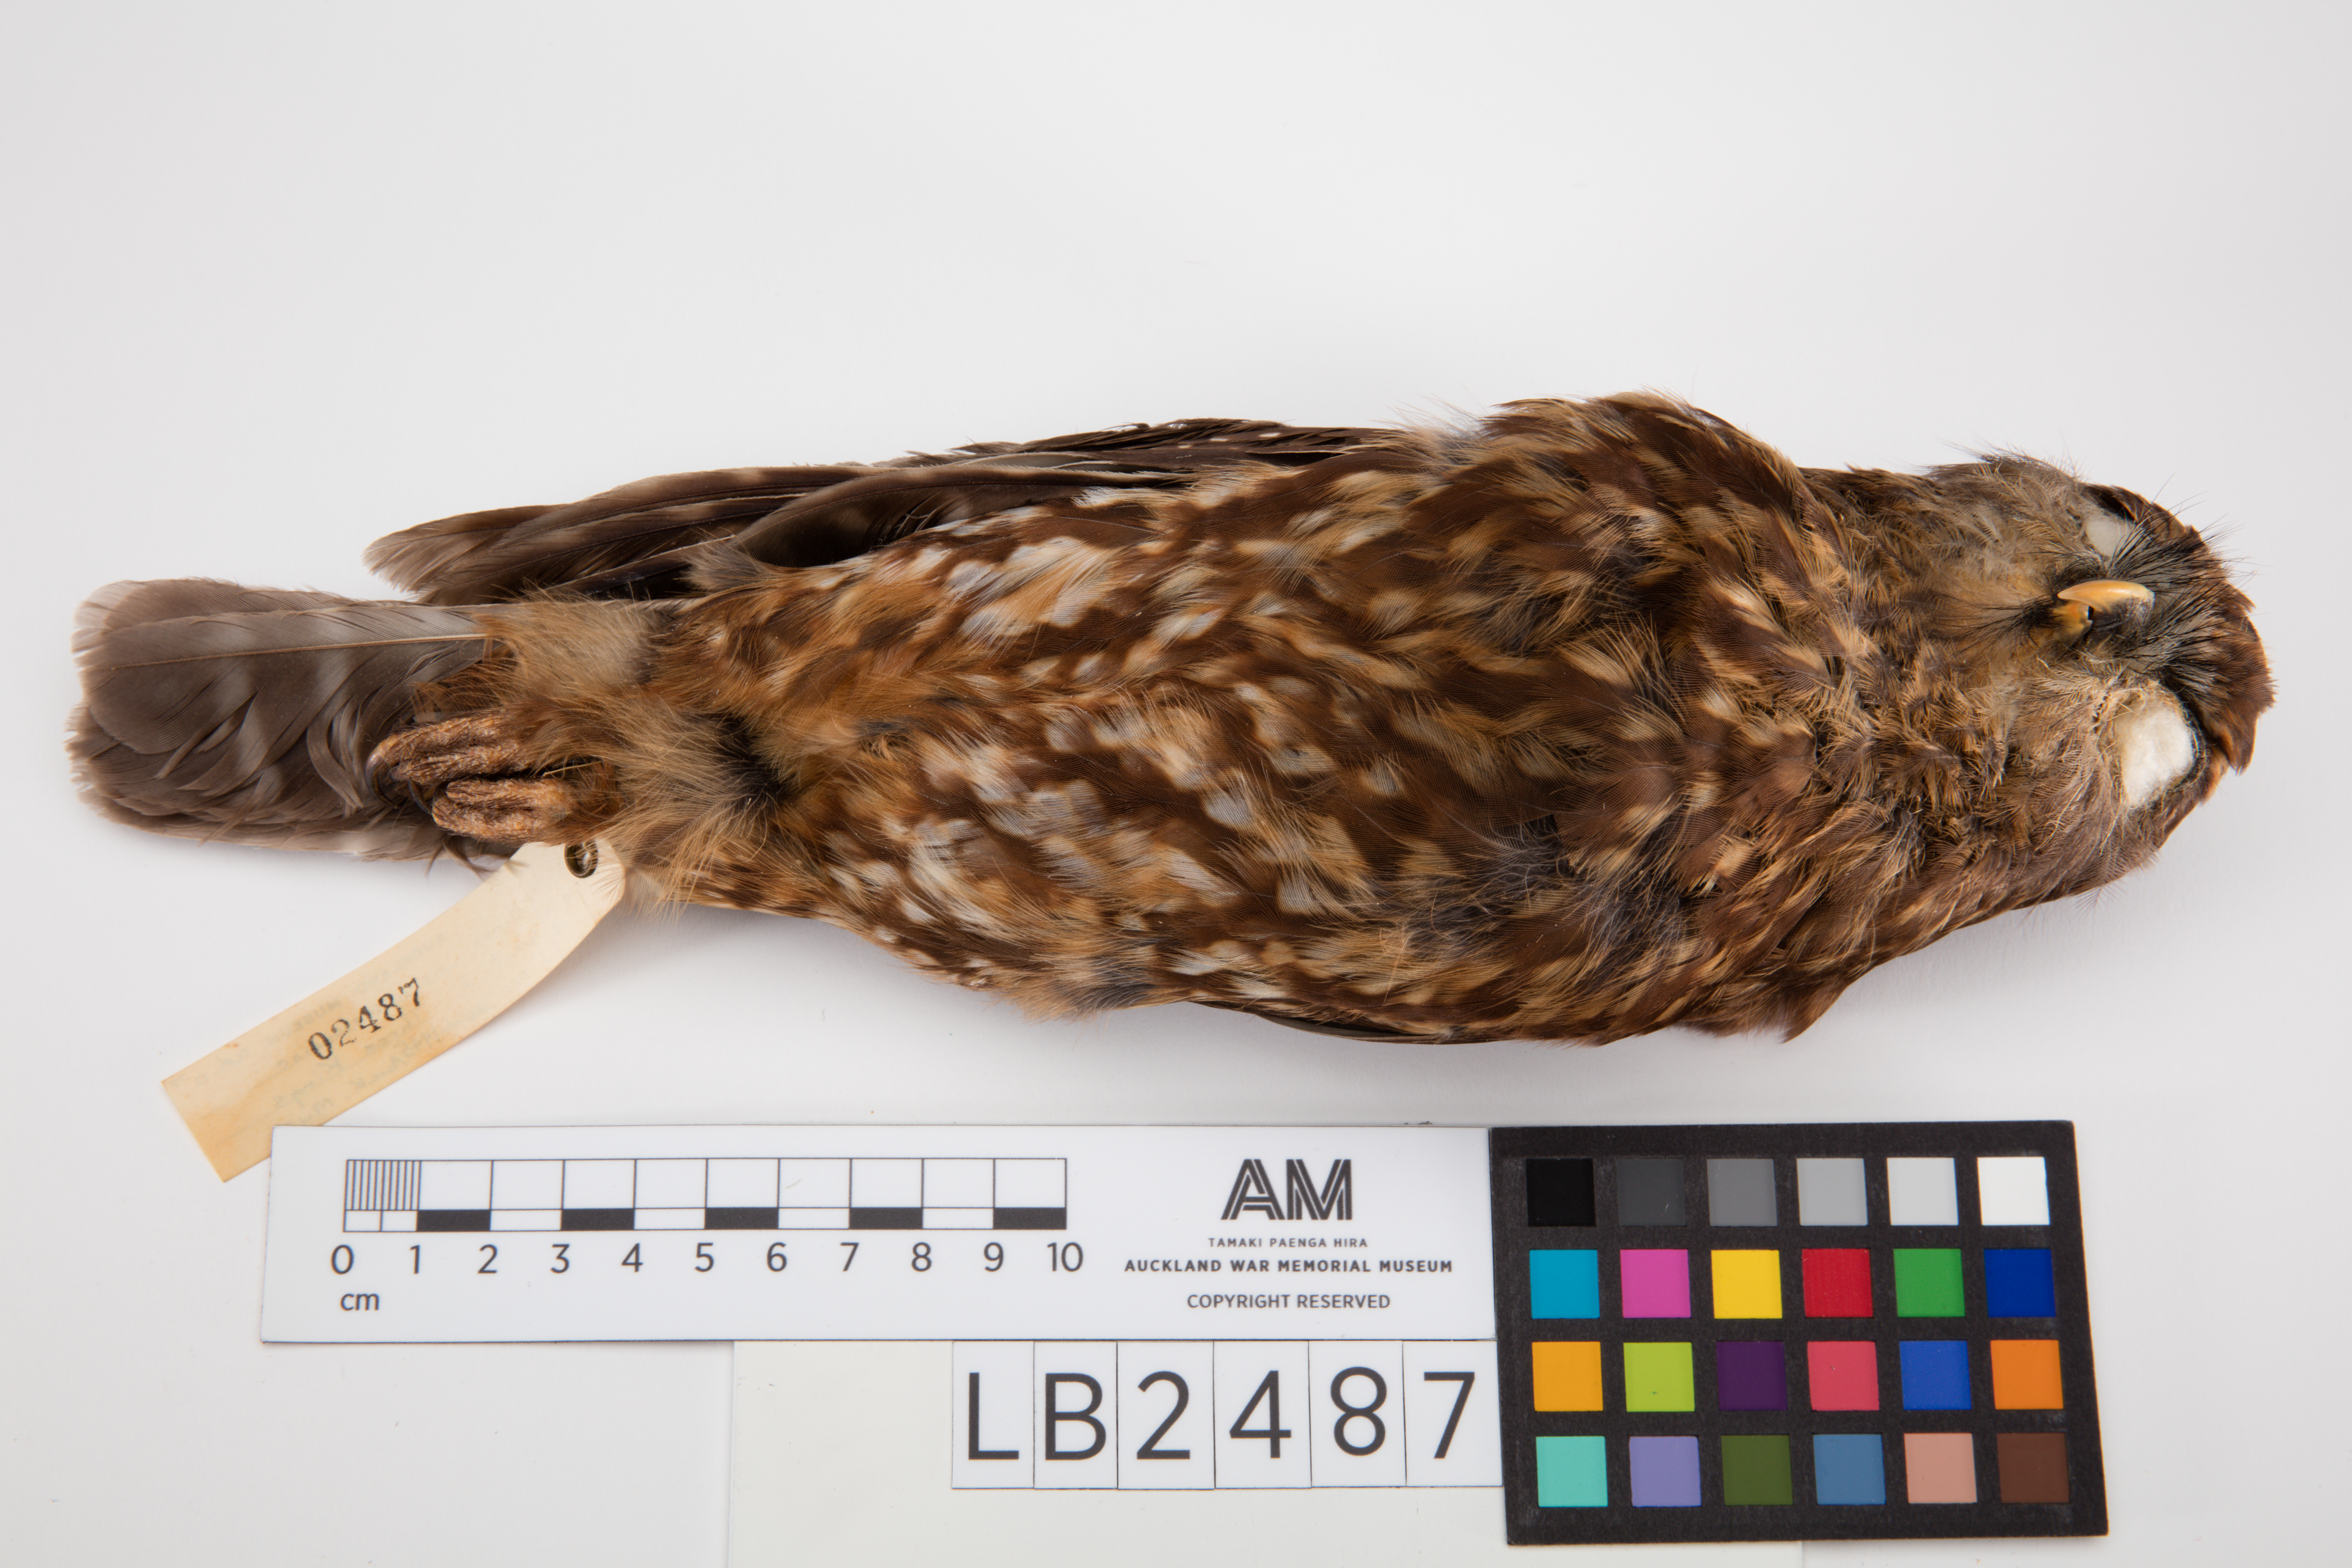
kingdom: Animalia
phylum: Chordata
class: Aves
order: Strigiformes
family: Strigidae
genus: Ninox
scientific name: Ninox novaeseelandiae
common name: Morepork
